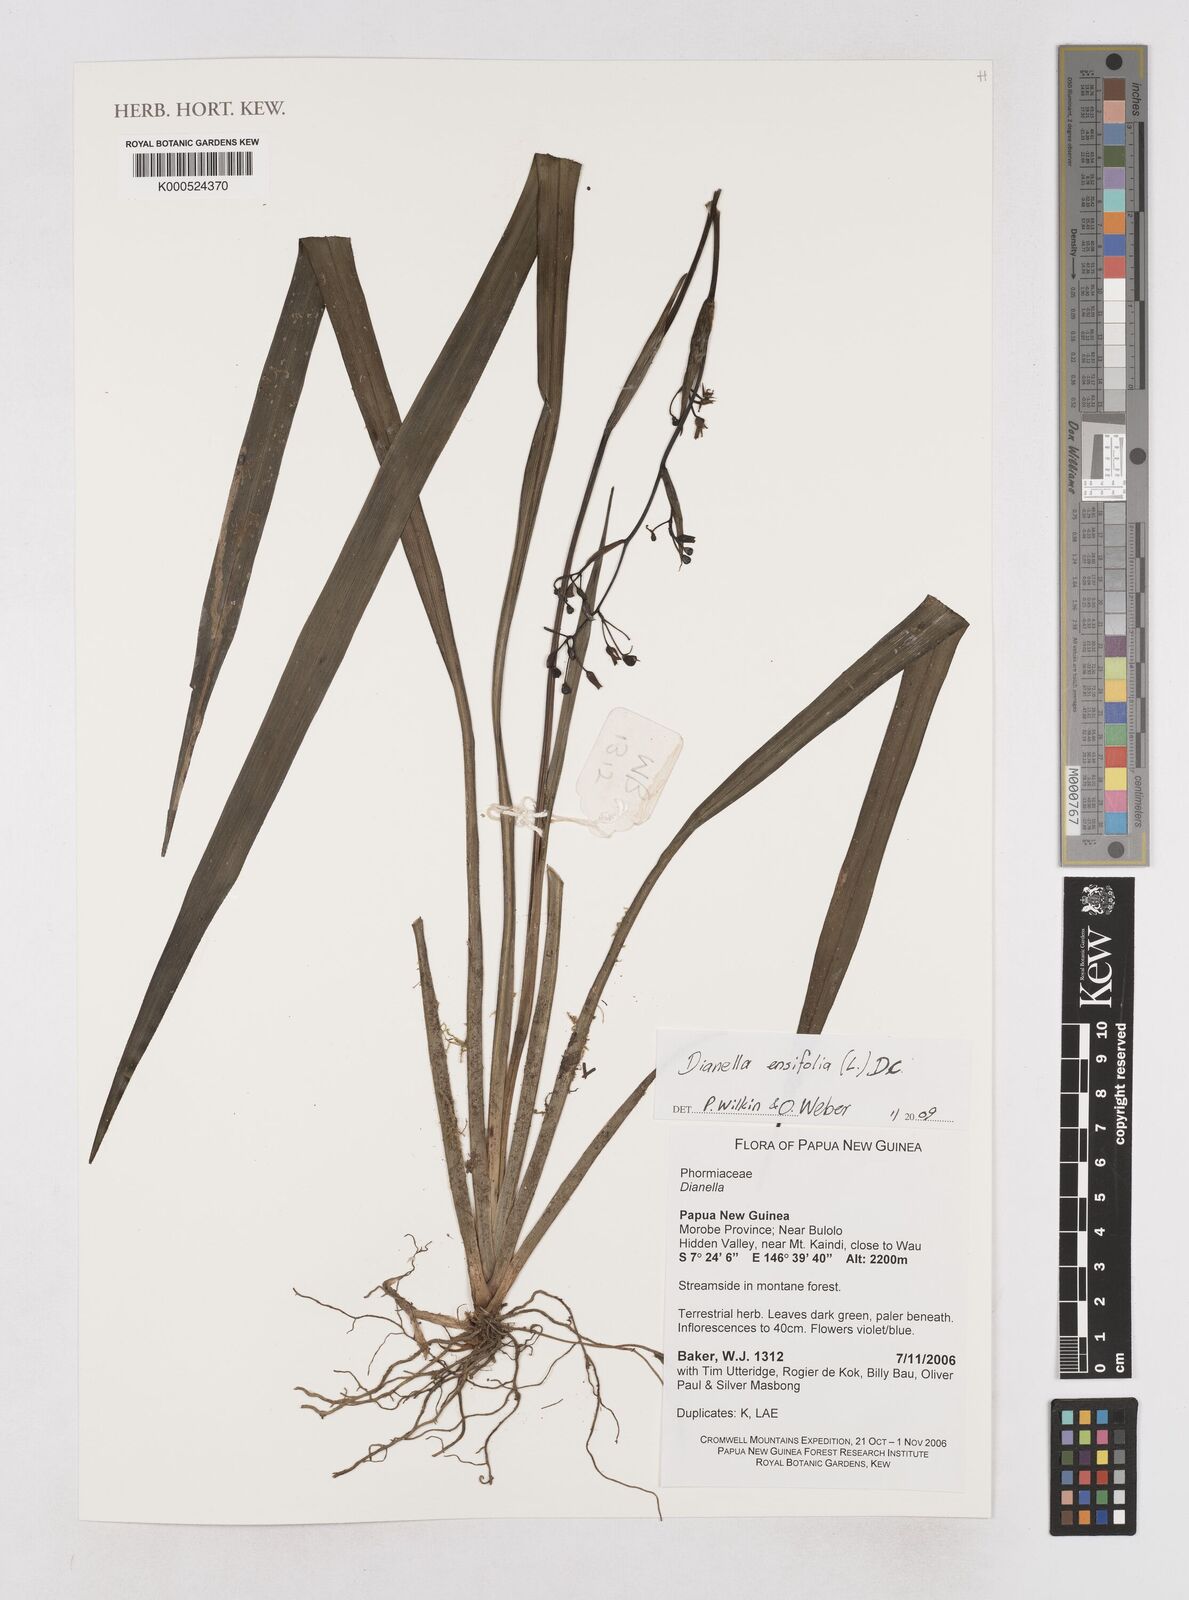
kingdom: Plantae
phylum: Tracheophyta
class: Liliopsida
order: Asparagales
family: Asphodelaceae
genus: Dianella
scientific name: Dianella
